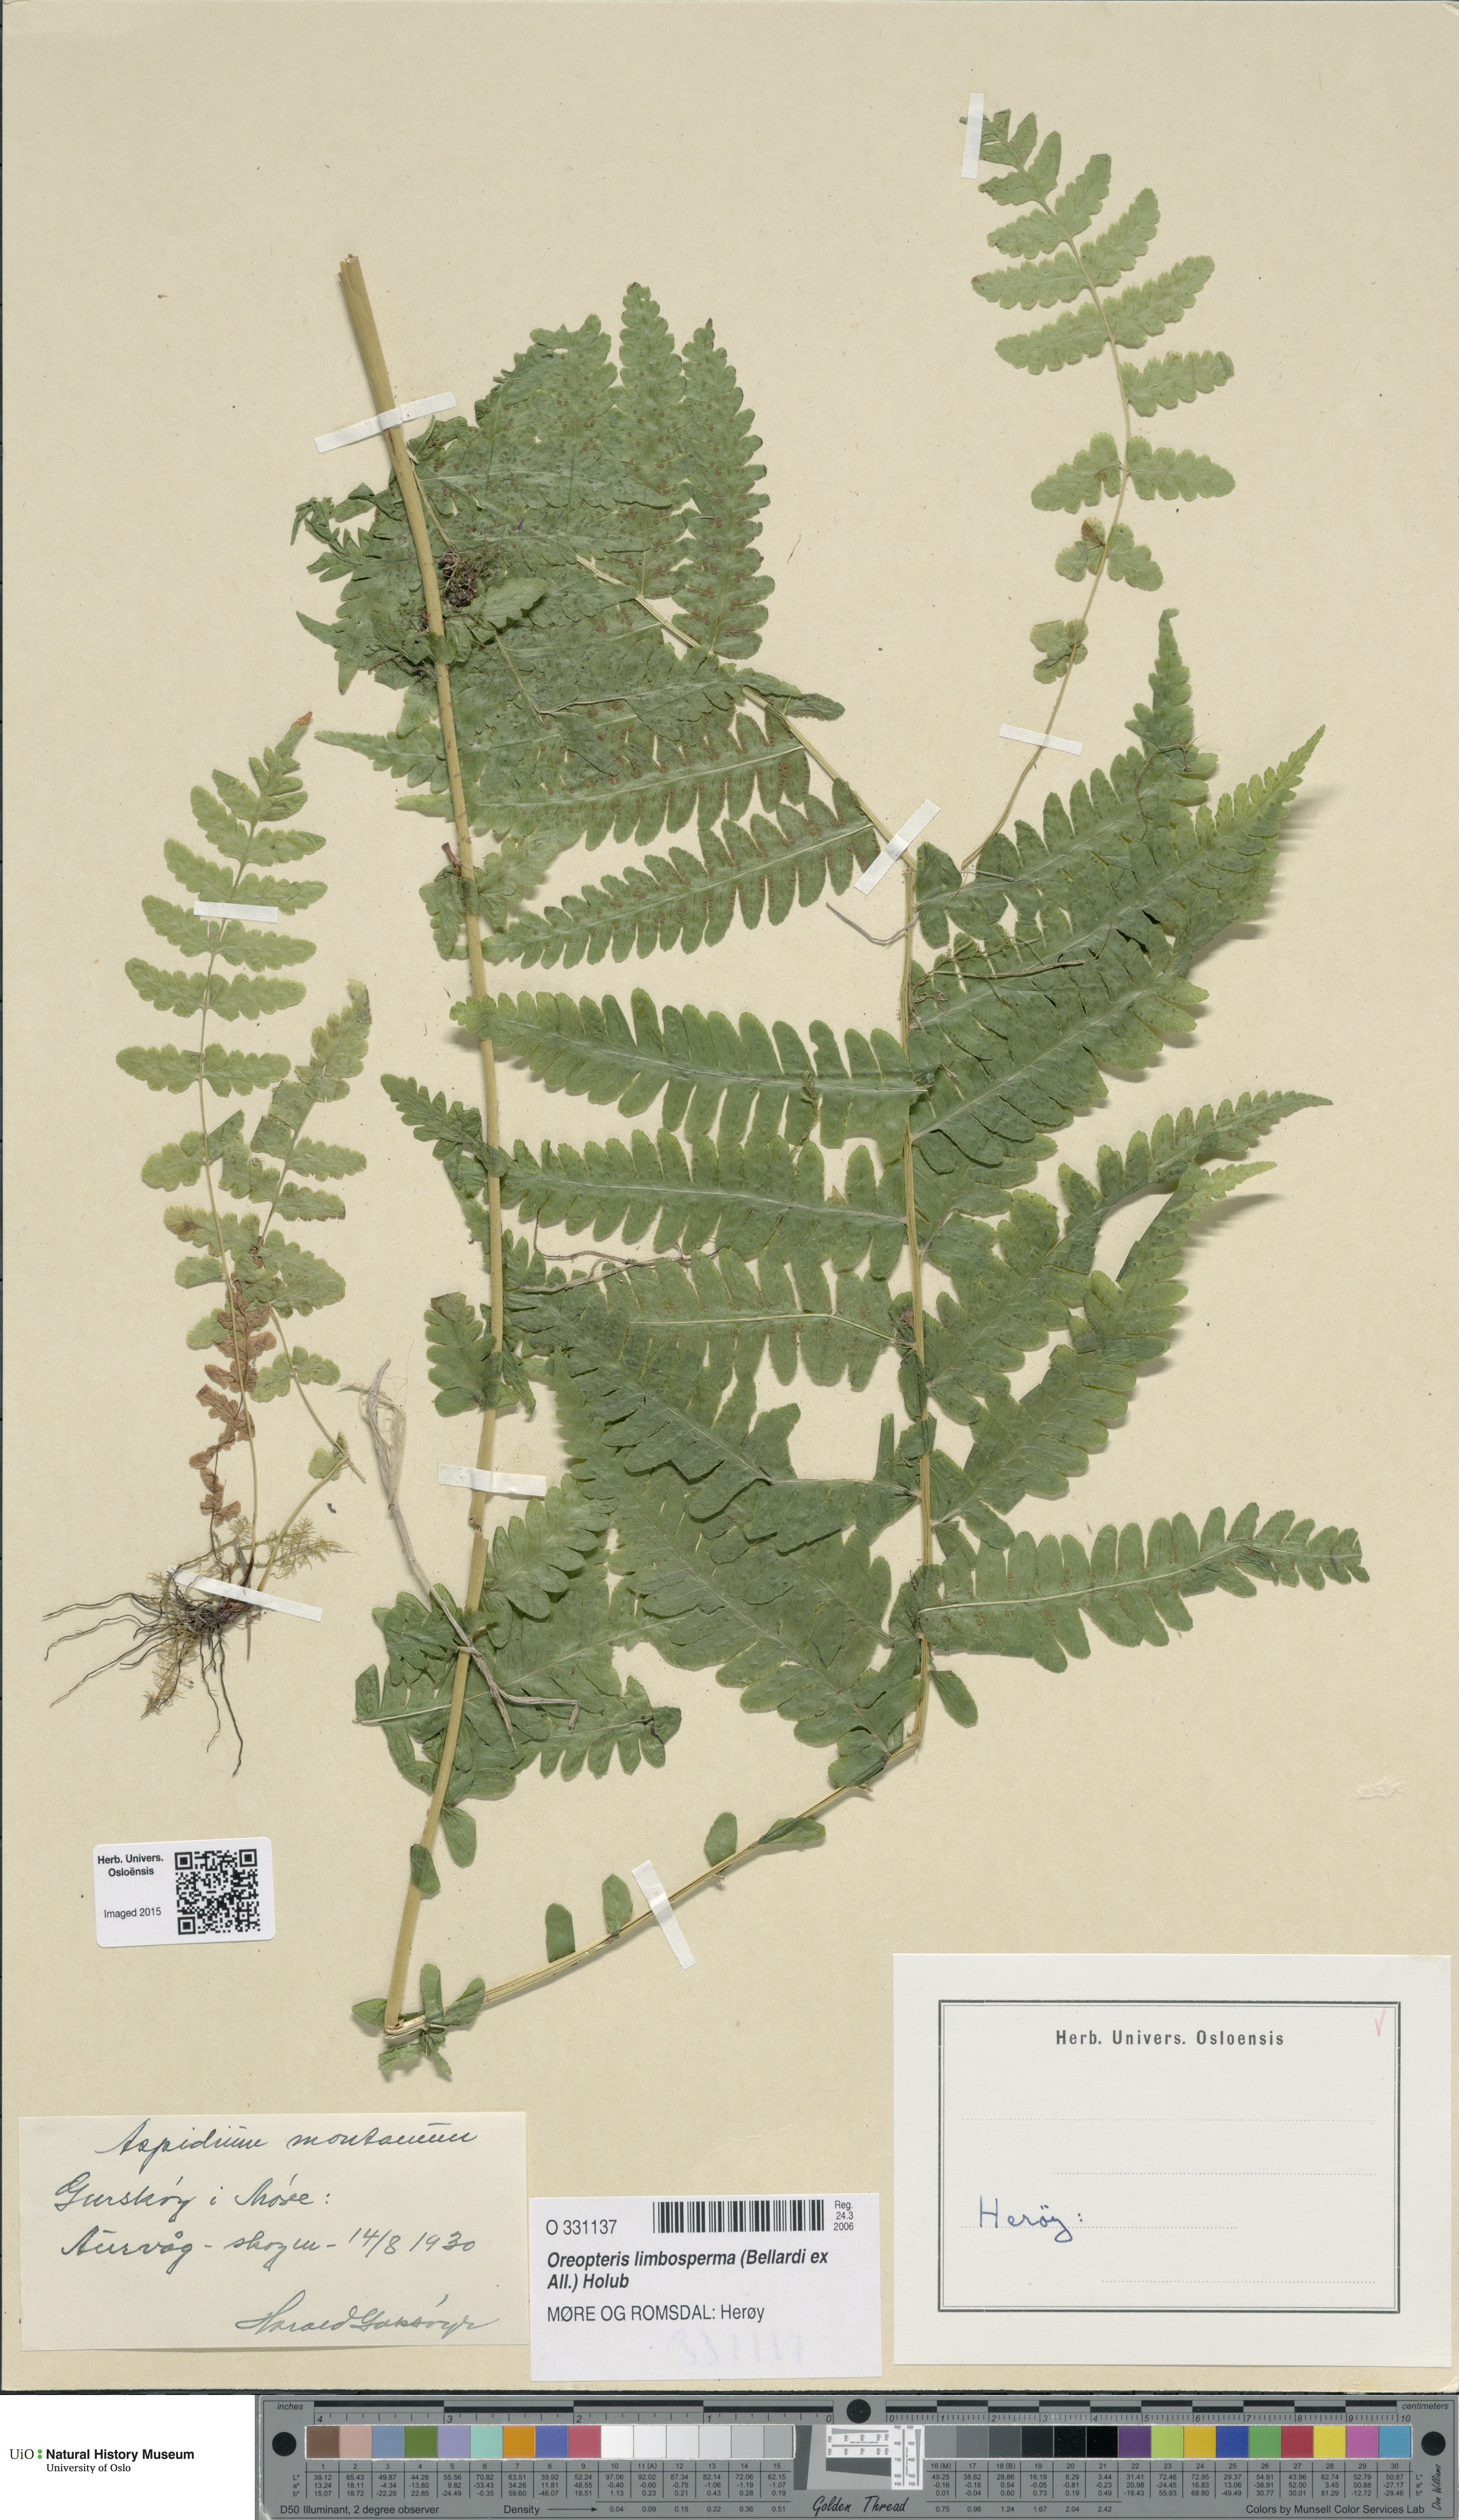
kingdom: Plantae
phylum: Tracheophyta
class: Polypodiopsida
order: Polypodiales
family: Thelypteridaceae
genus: Oreopteris
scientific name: Oreopteris limbosperma
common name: Lemon-scented fern
